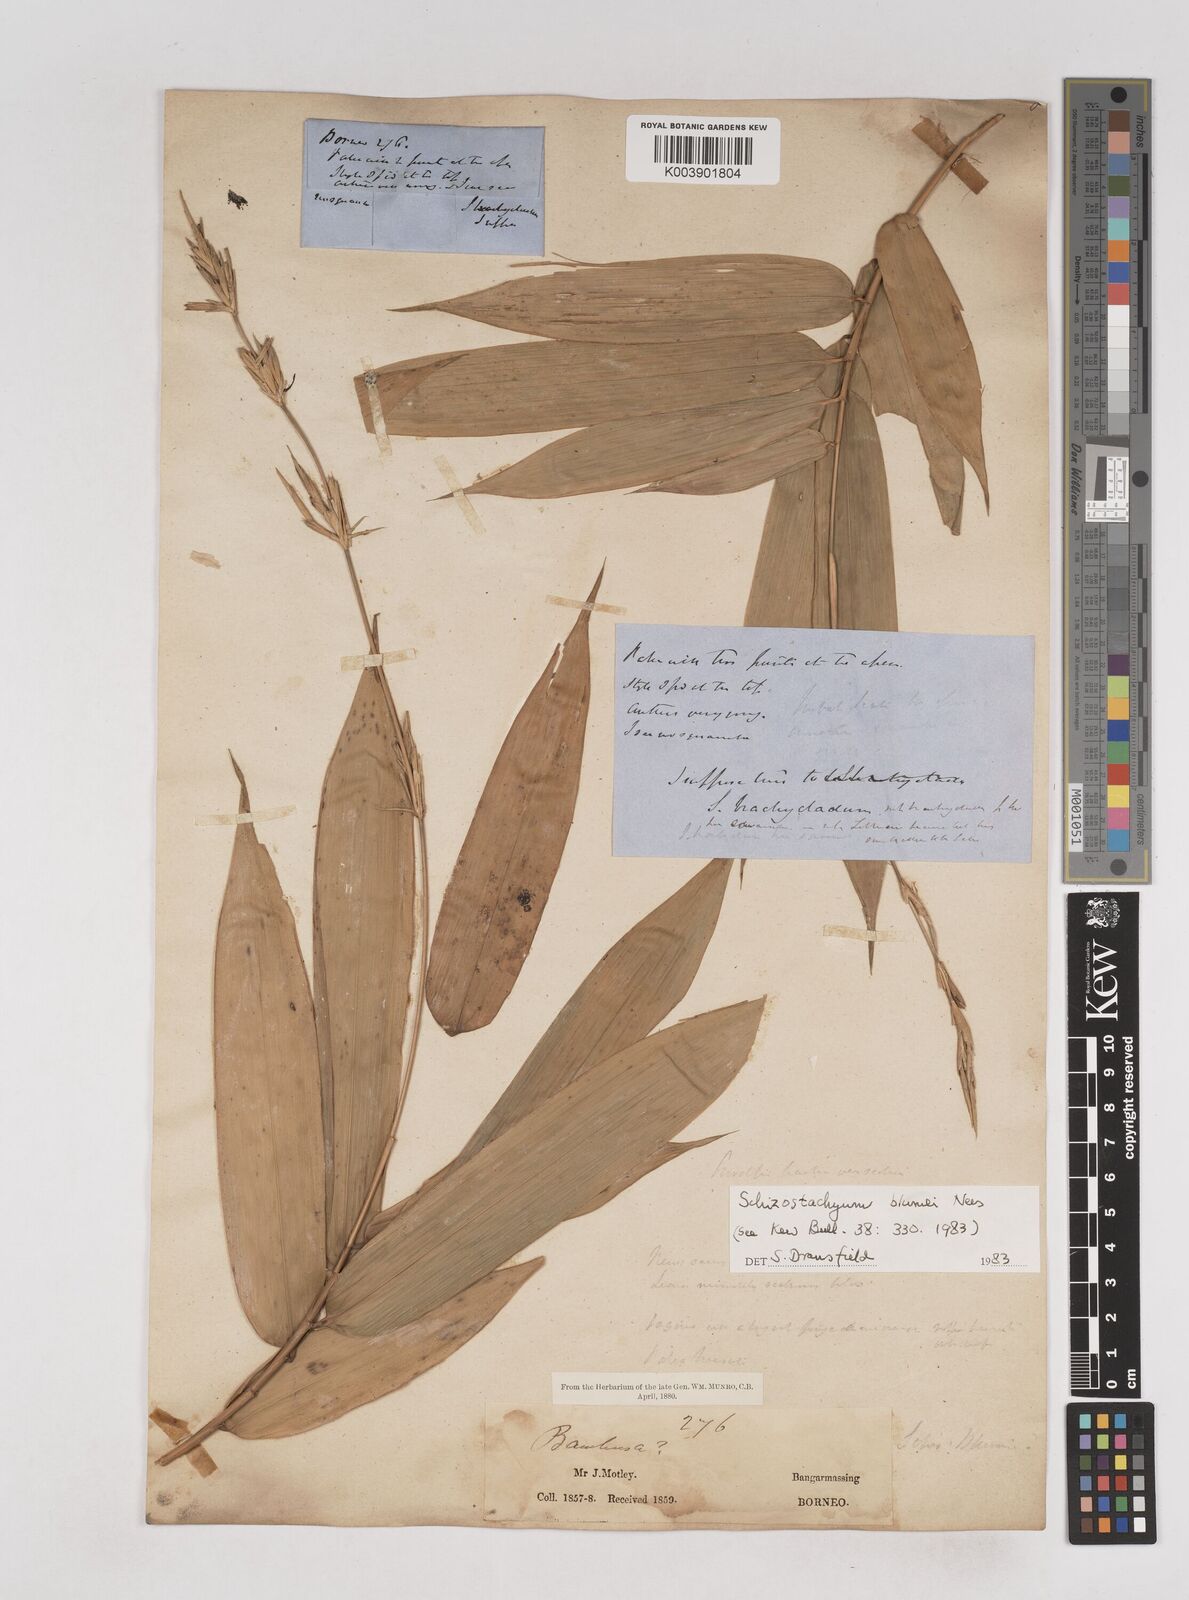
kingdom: Plantae
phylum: Tracheophyta
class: Liliopsida
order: Poales
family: Poaceae
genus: Schizostachyum
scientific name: Schizostachyum blumei
